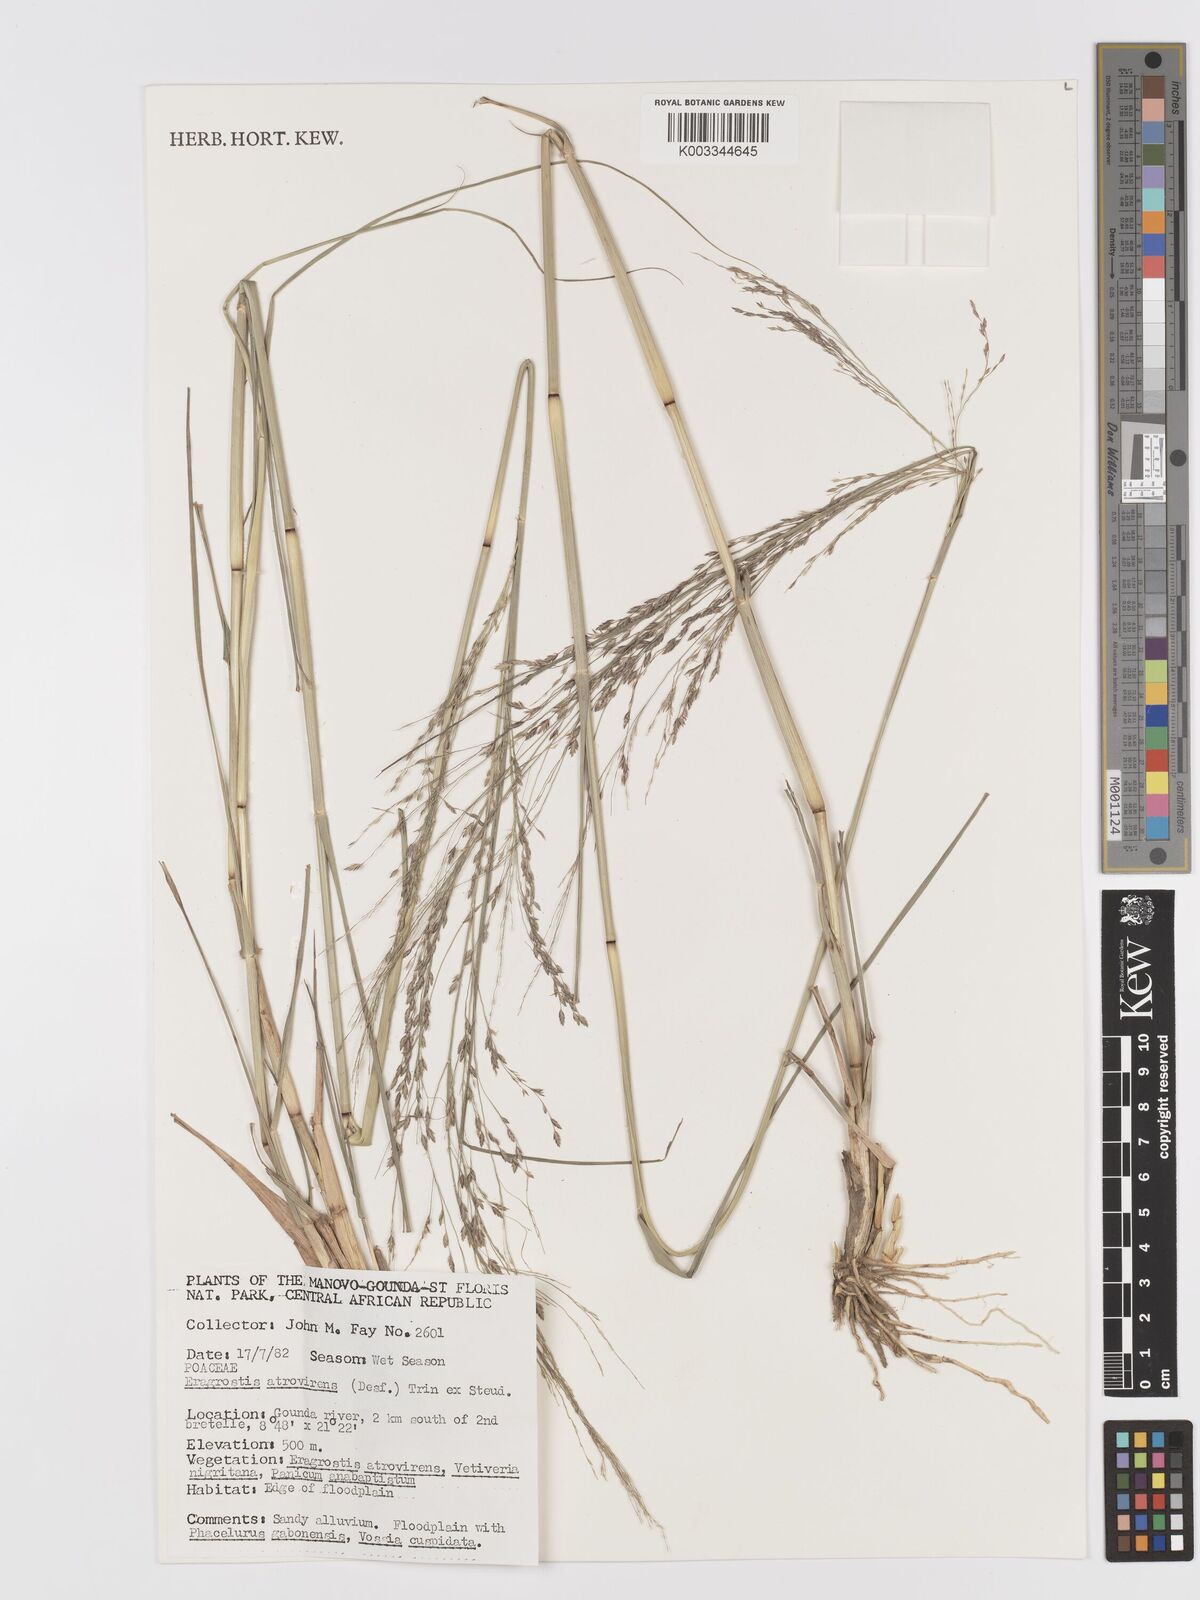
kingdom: Plantae
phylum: Tracheophyta
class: Liliopsida
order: Poales
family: Poaceae
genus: Eragrostis
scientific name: Eragrostis atrovirens
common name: Thalia lovegrass
